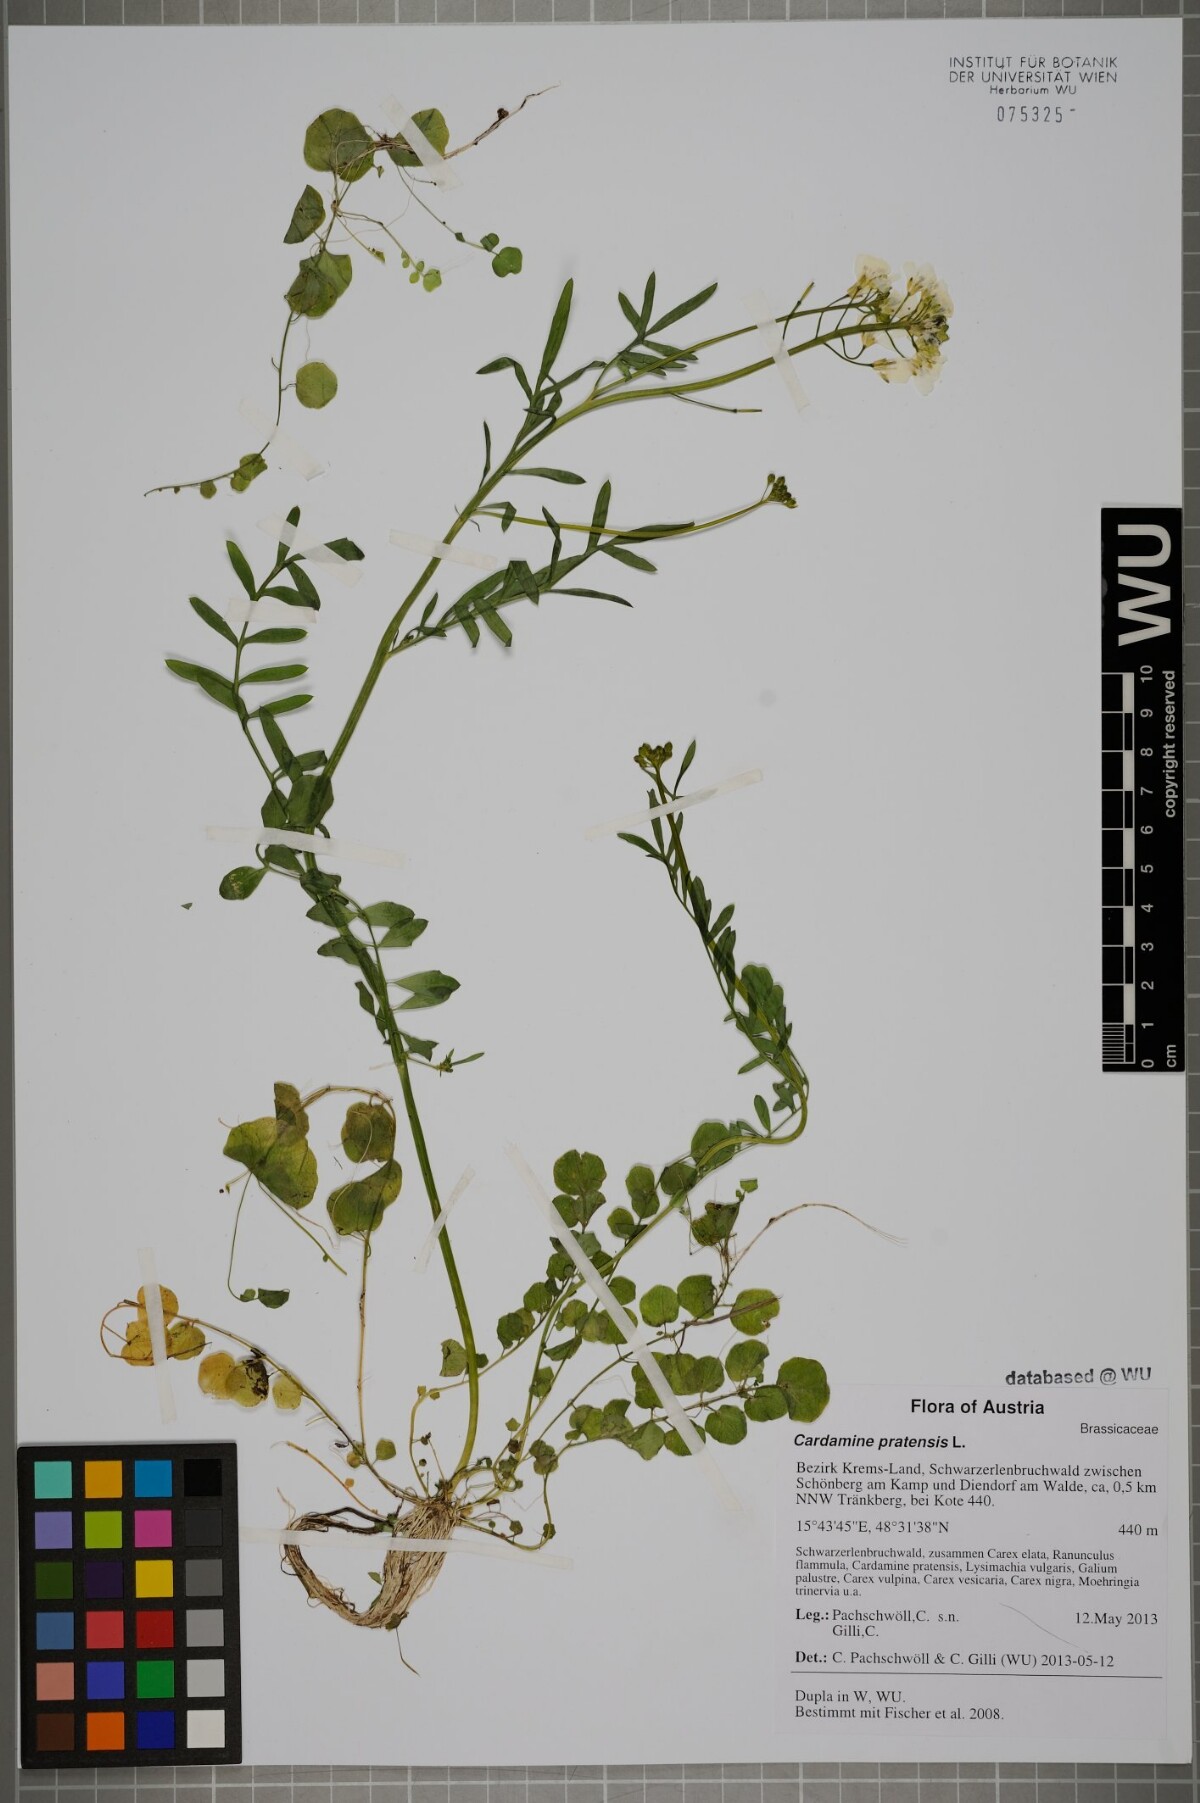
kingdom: Plantae
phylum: Tracheophyta
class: Magnoliopsida
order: Brassicales
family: Brassicaceae
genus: Cardamine
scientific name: Cardamine pratensis
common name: Cuckoo flower
